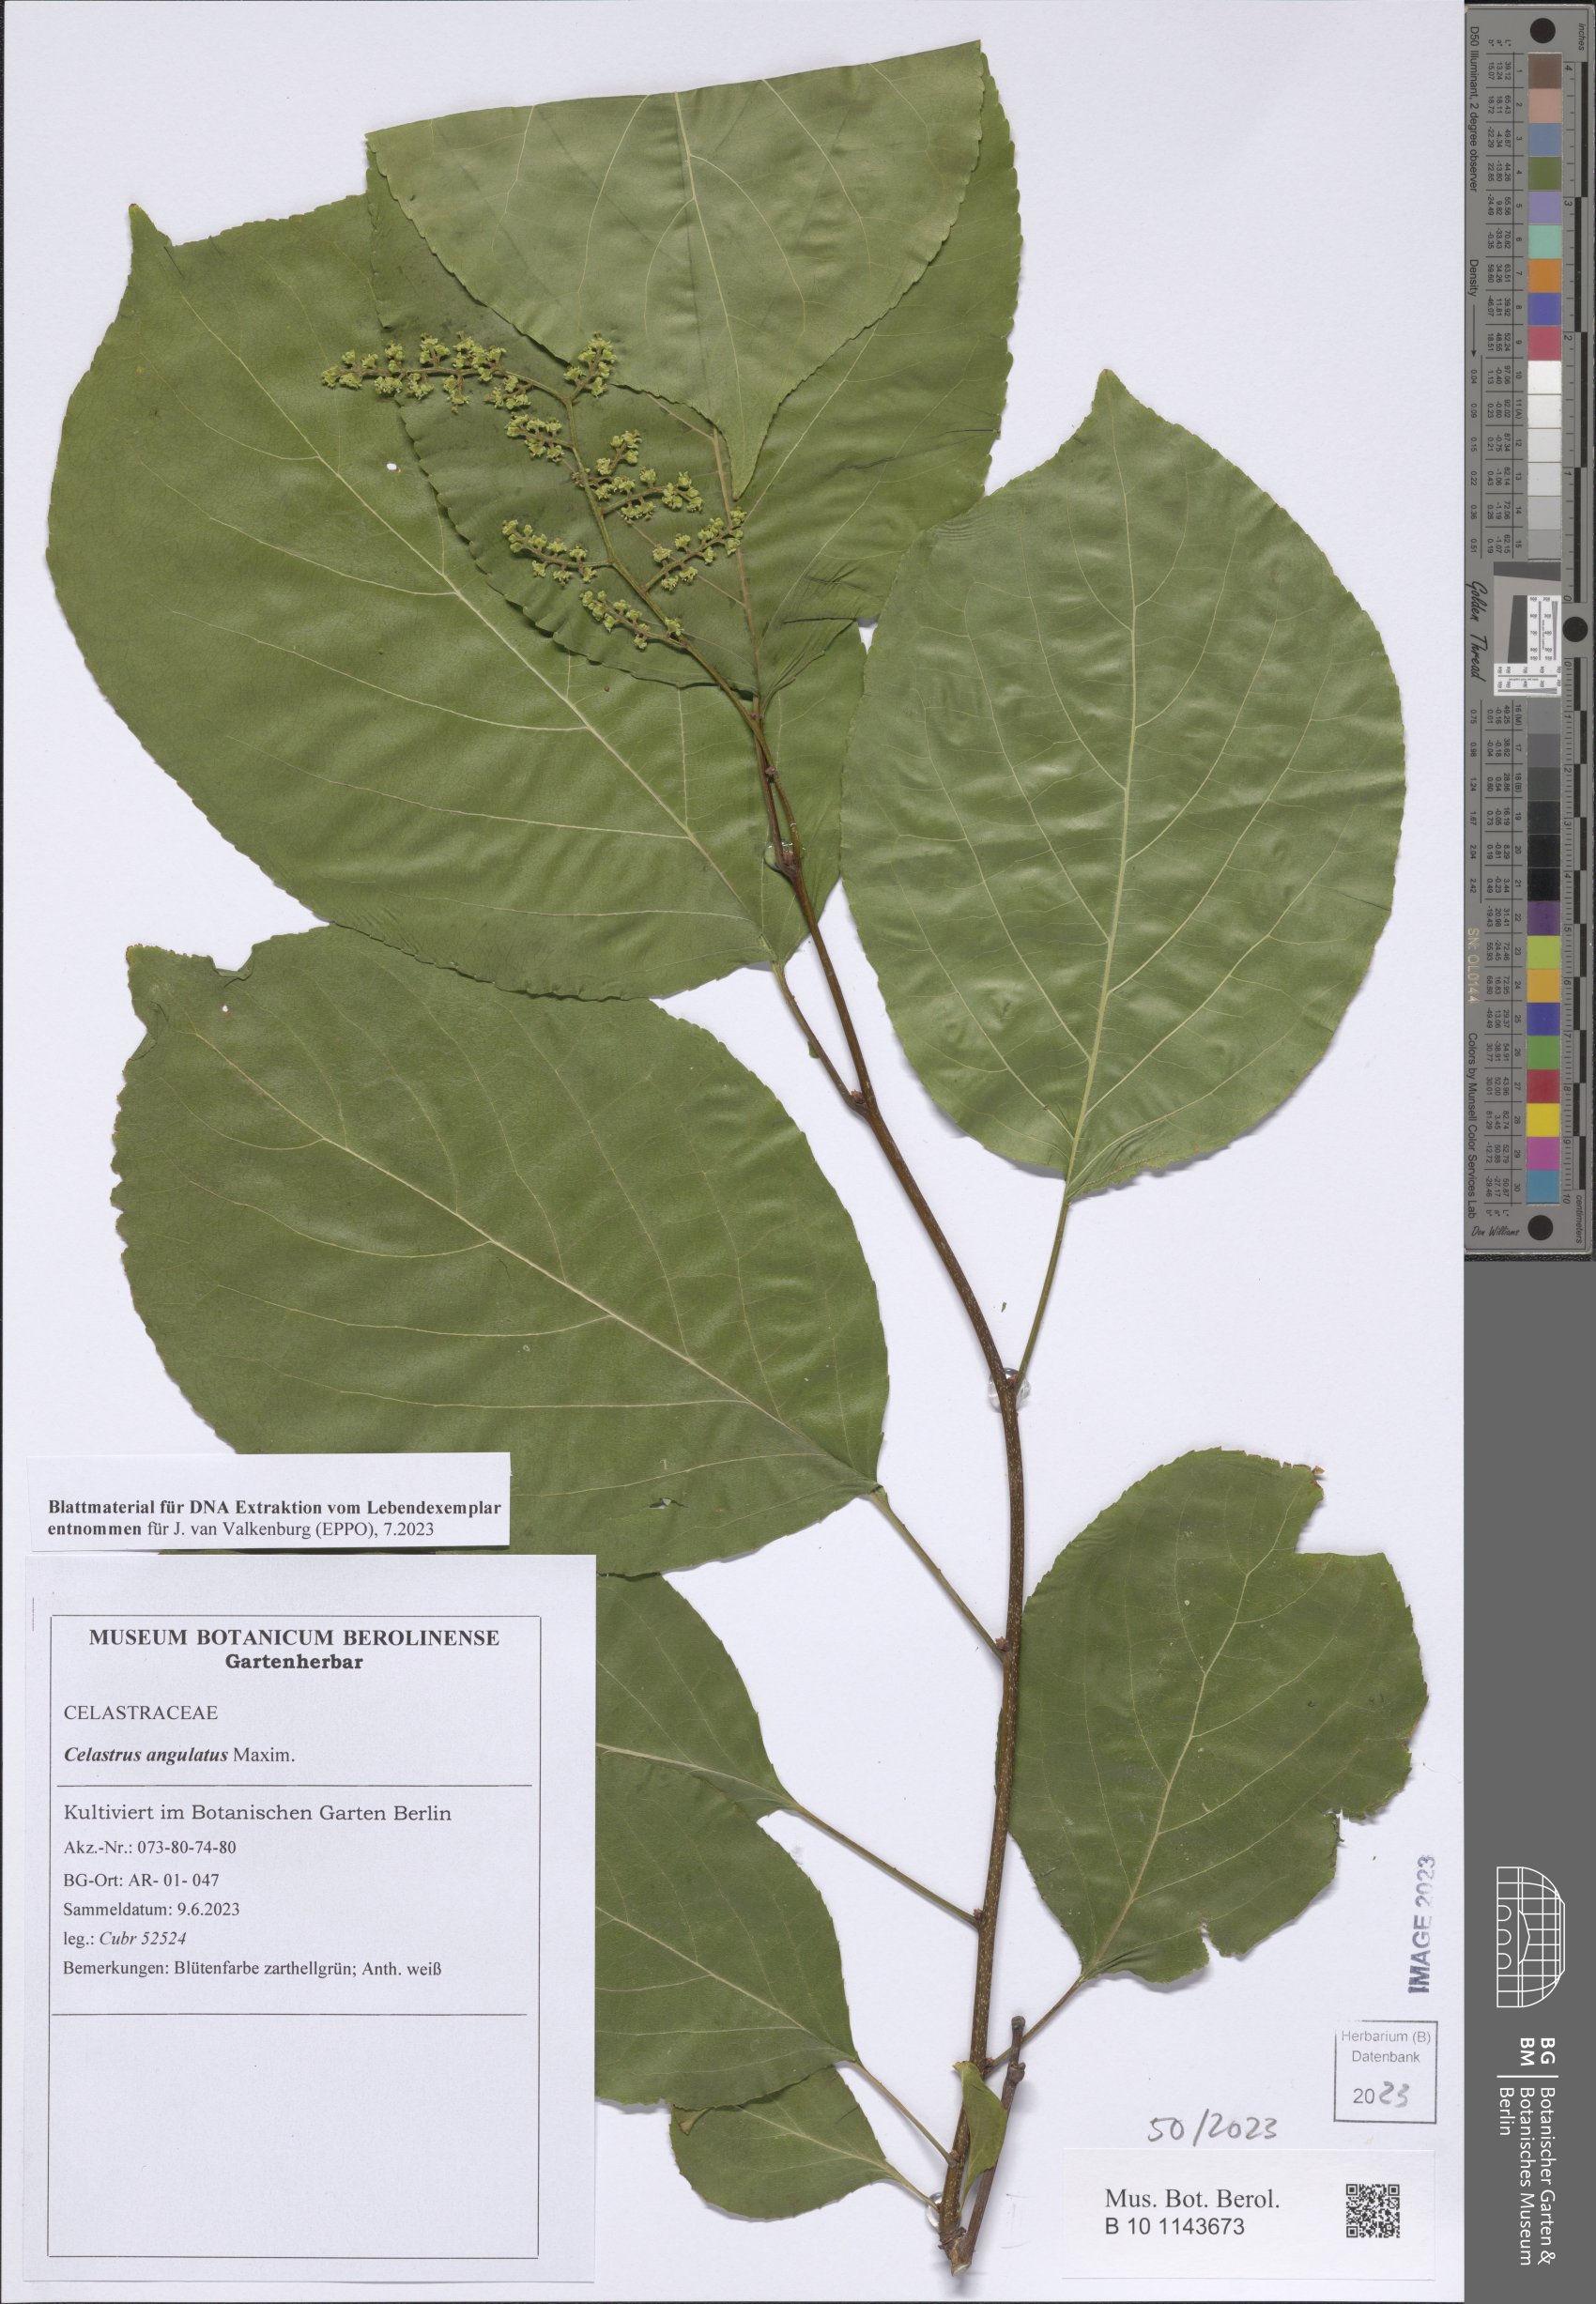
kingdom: Plantae
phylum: Tracheophyta
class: Magnoliopsida
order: Celastrales
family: Celastraceae
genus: Celastrus
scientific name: Celastrus angulatus
